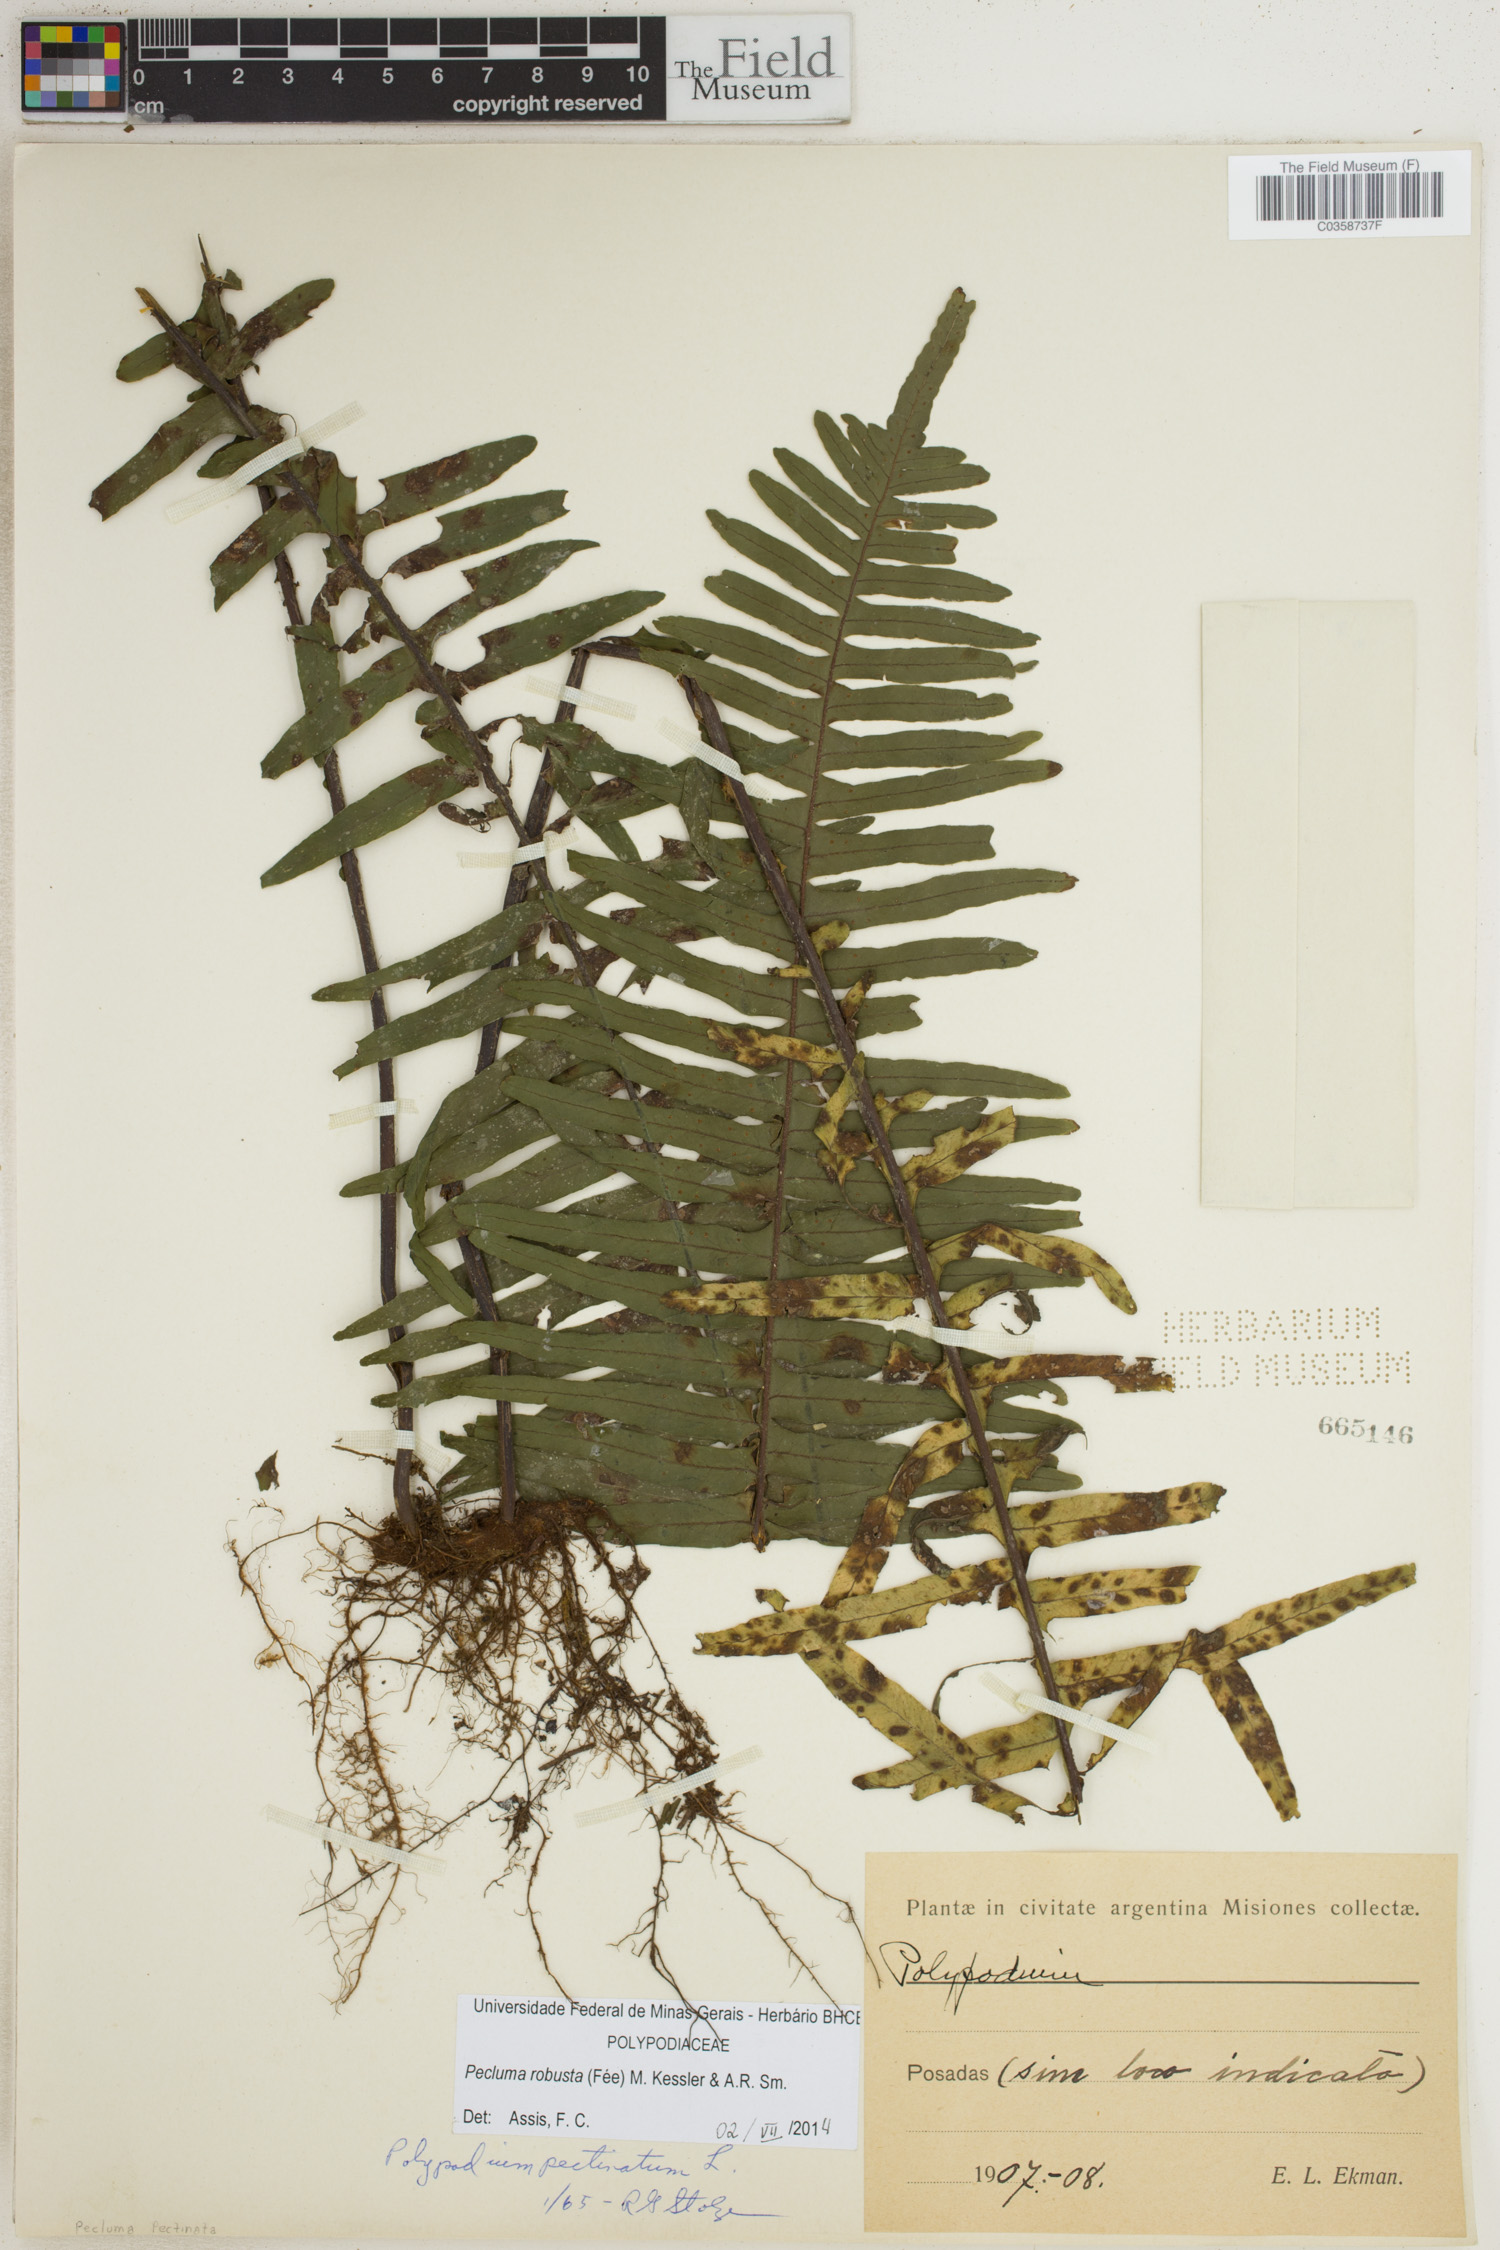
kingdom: Plantae
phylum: Tracheophyta
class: Polypodiopsida
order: Polypodiales
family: Polypodiaceae
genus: Pecluma
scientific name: Pecluma robusta
